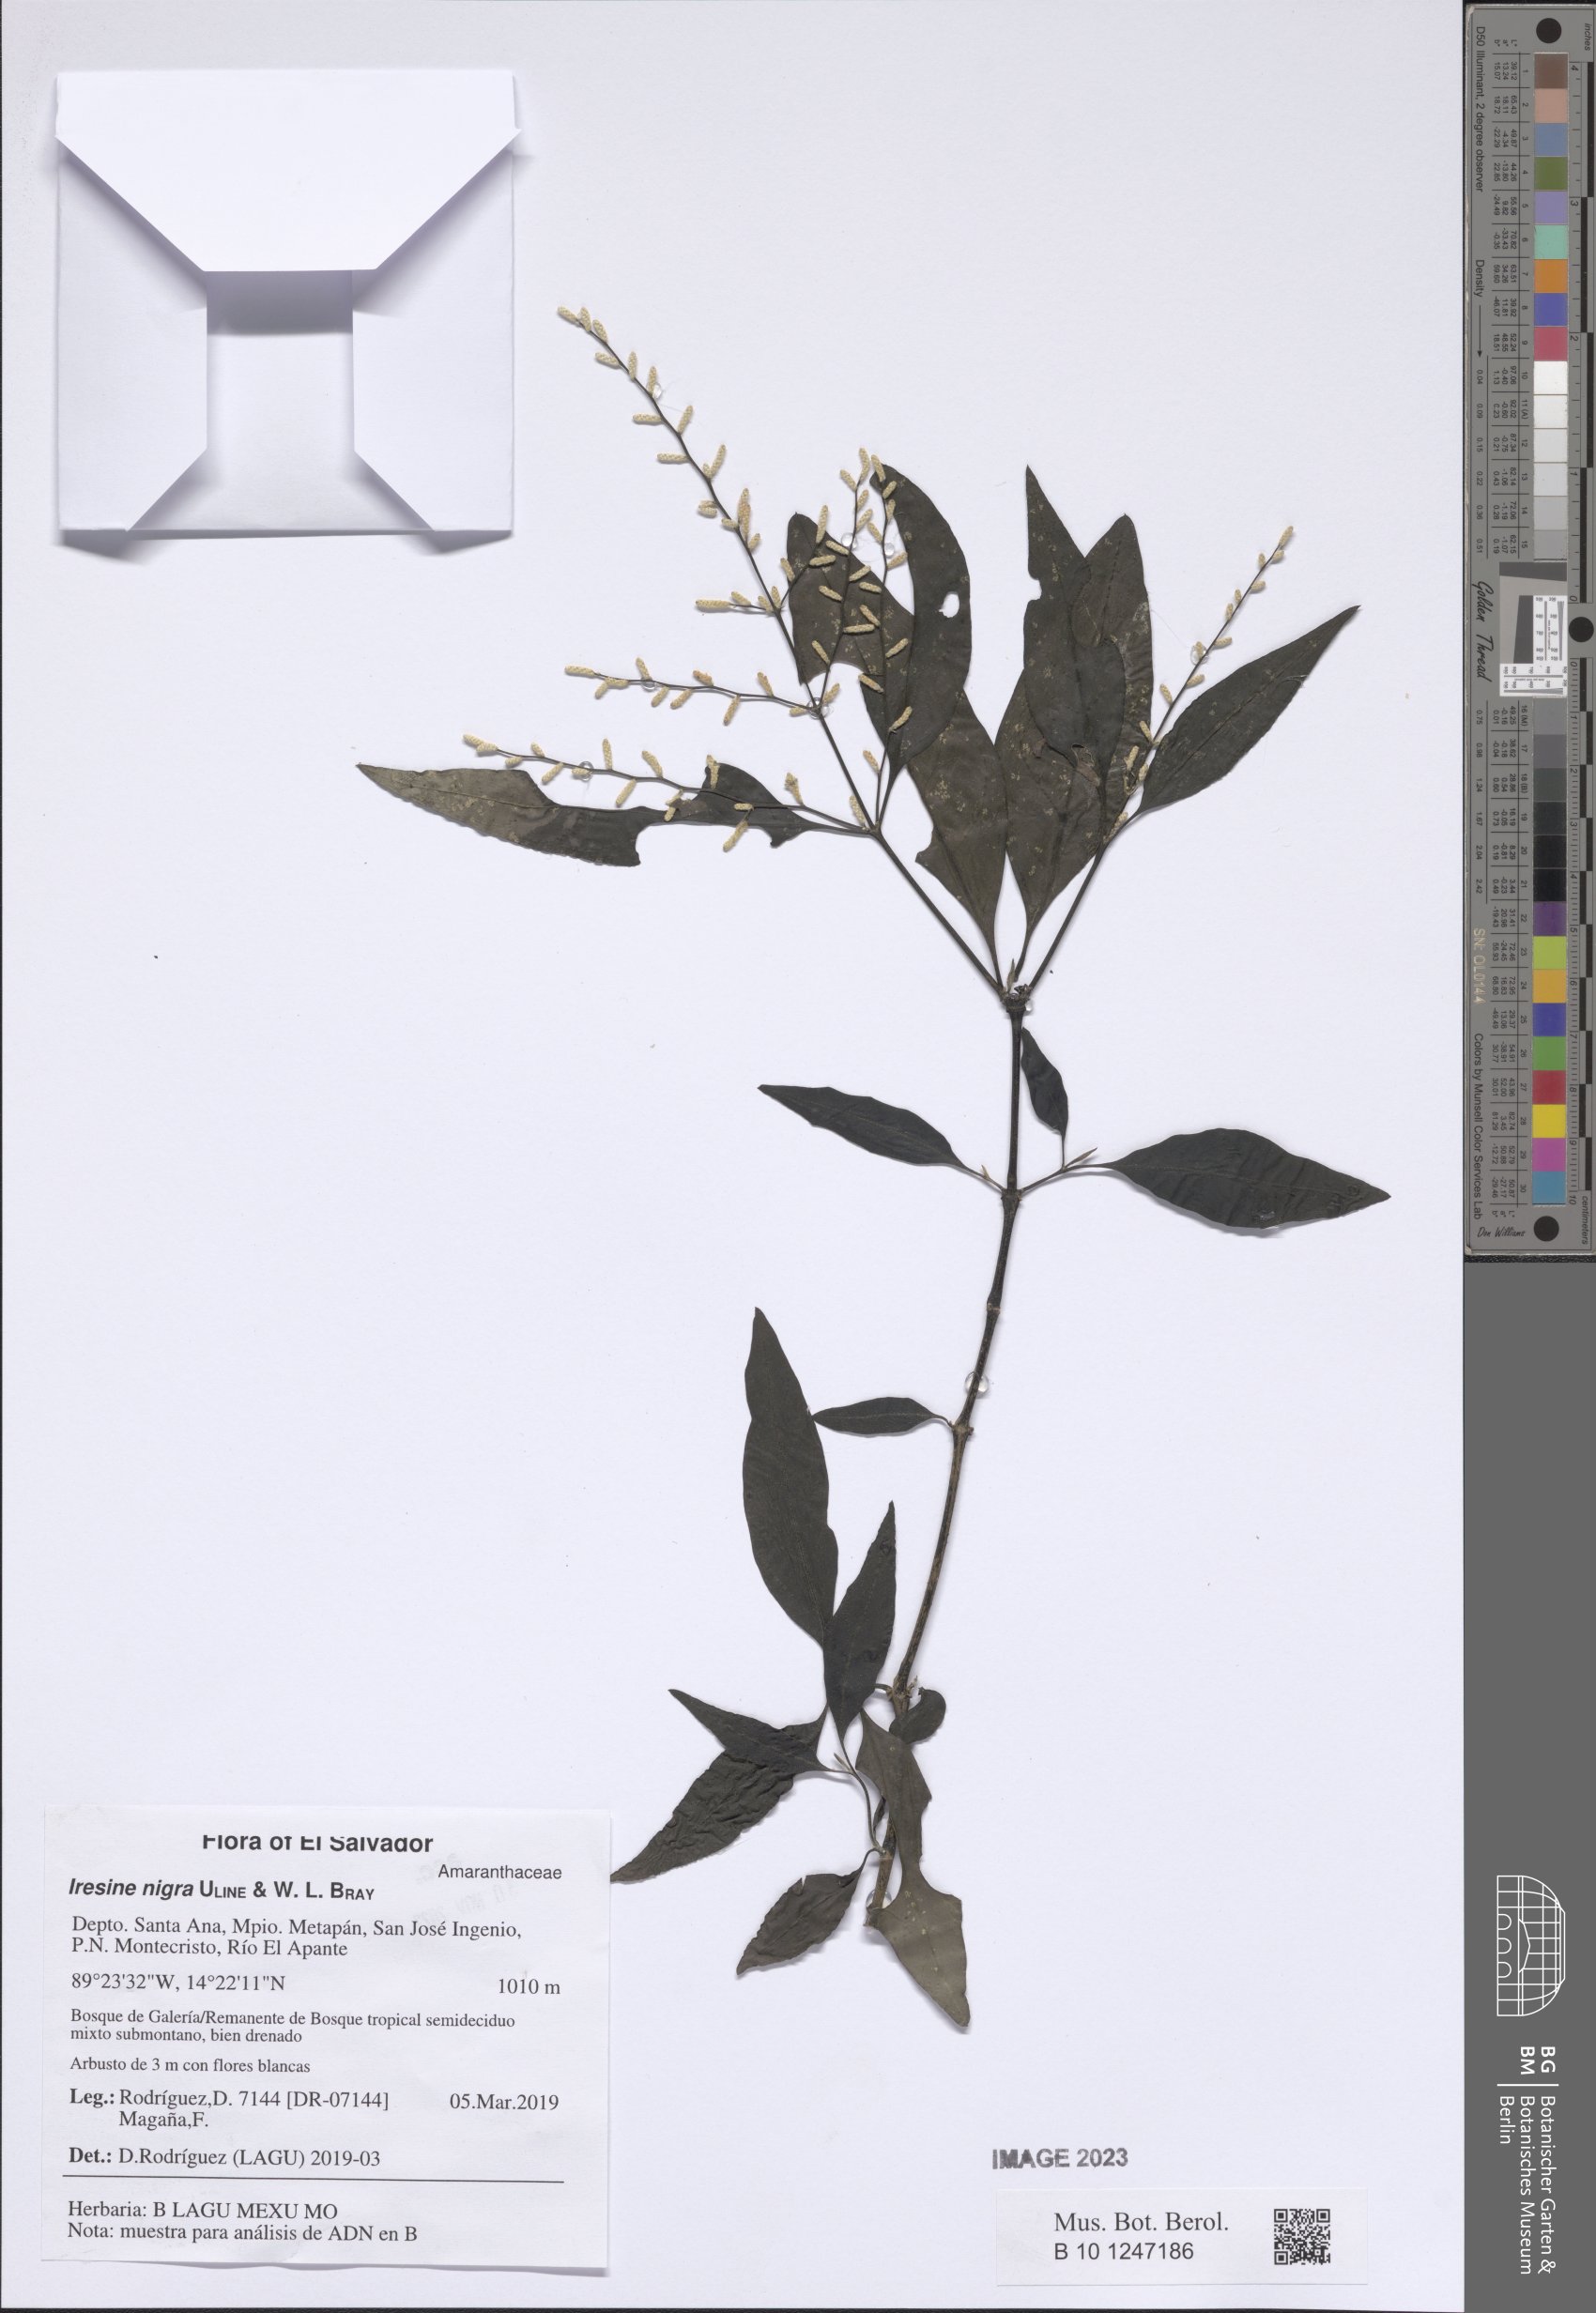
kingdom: Plantae
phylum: Tracheophyta
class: Magnoliopsida
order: Caryophyllales
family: Amaranthaceae
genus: Iresine
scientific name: Iresine nigra
